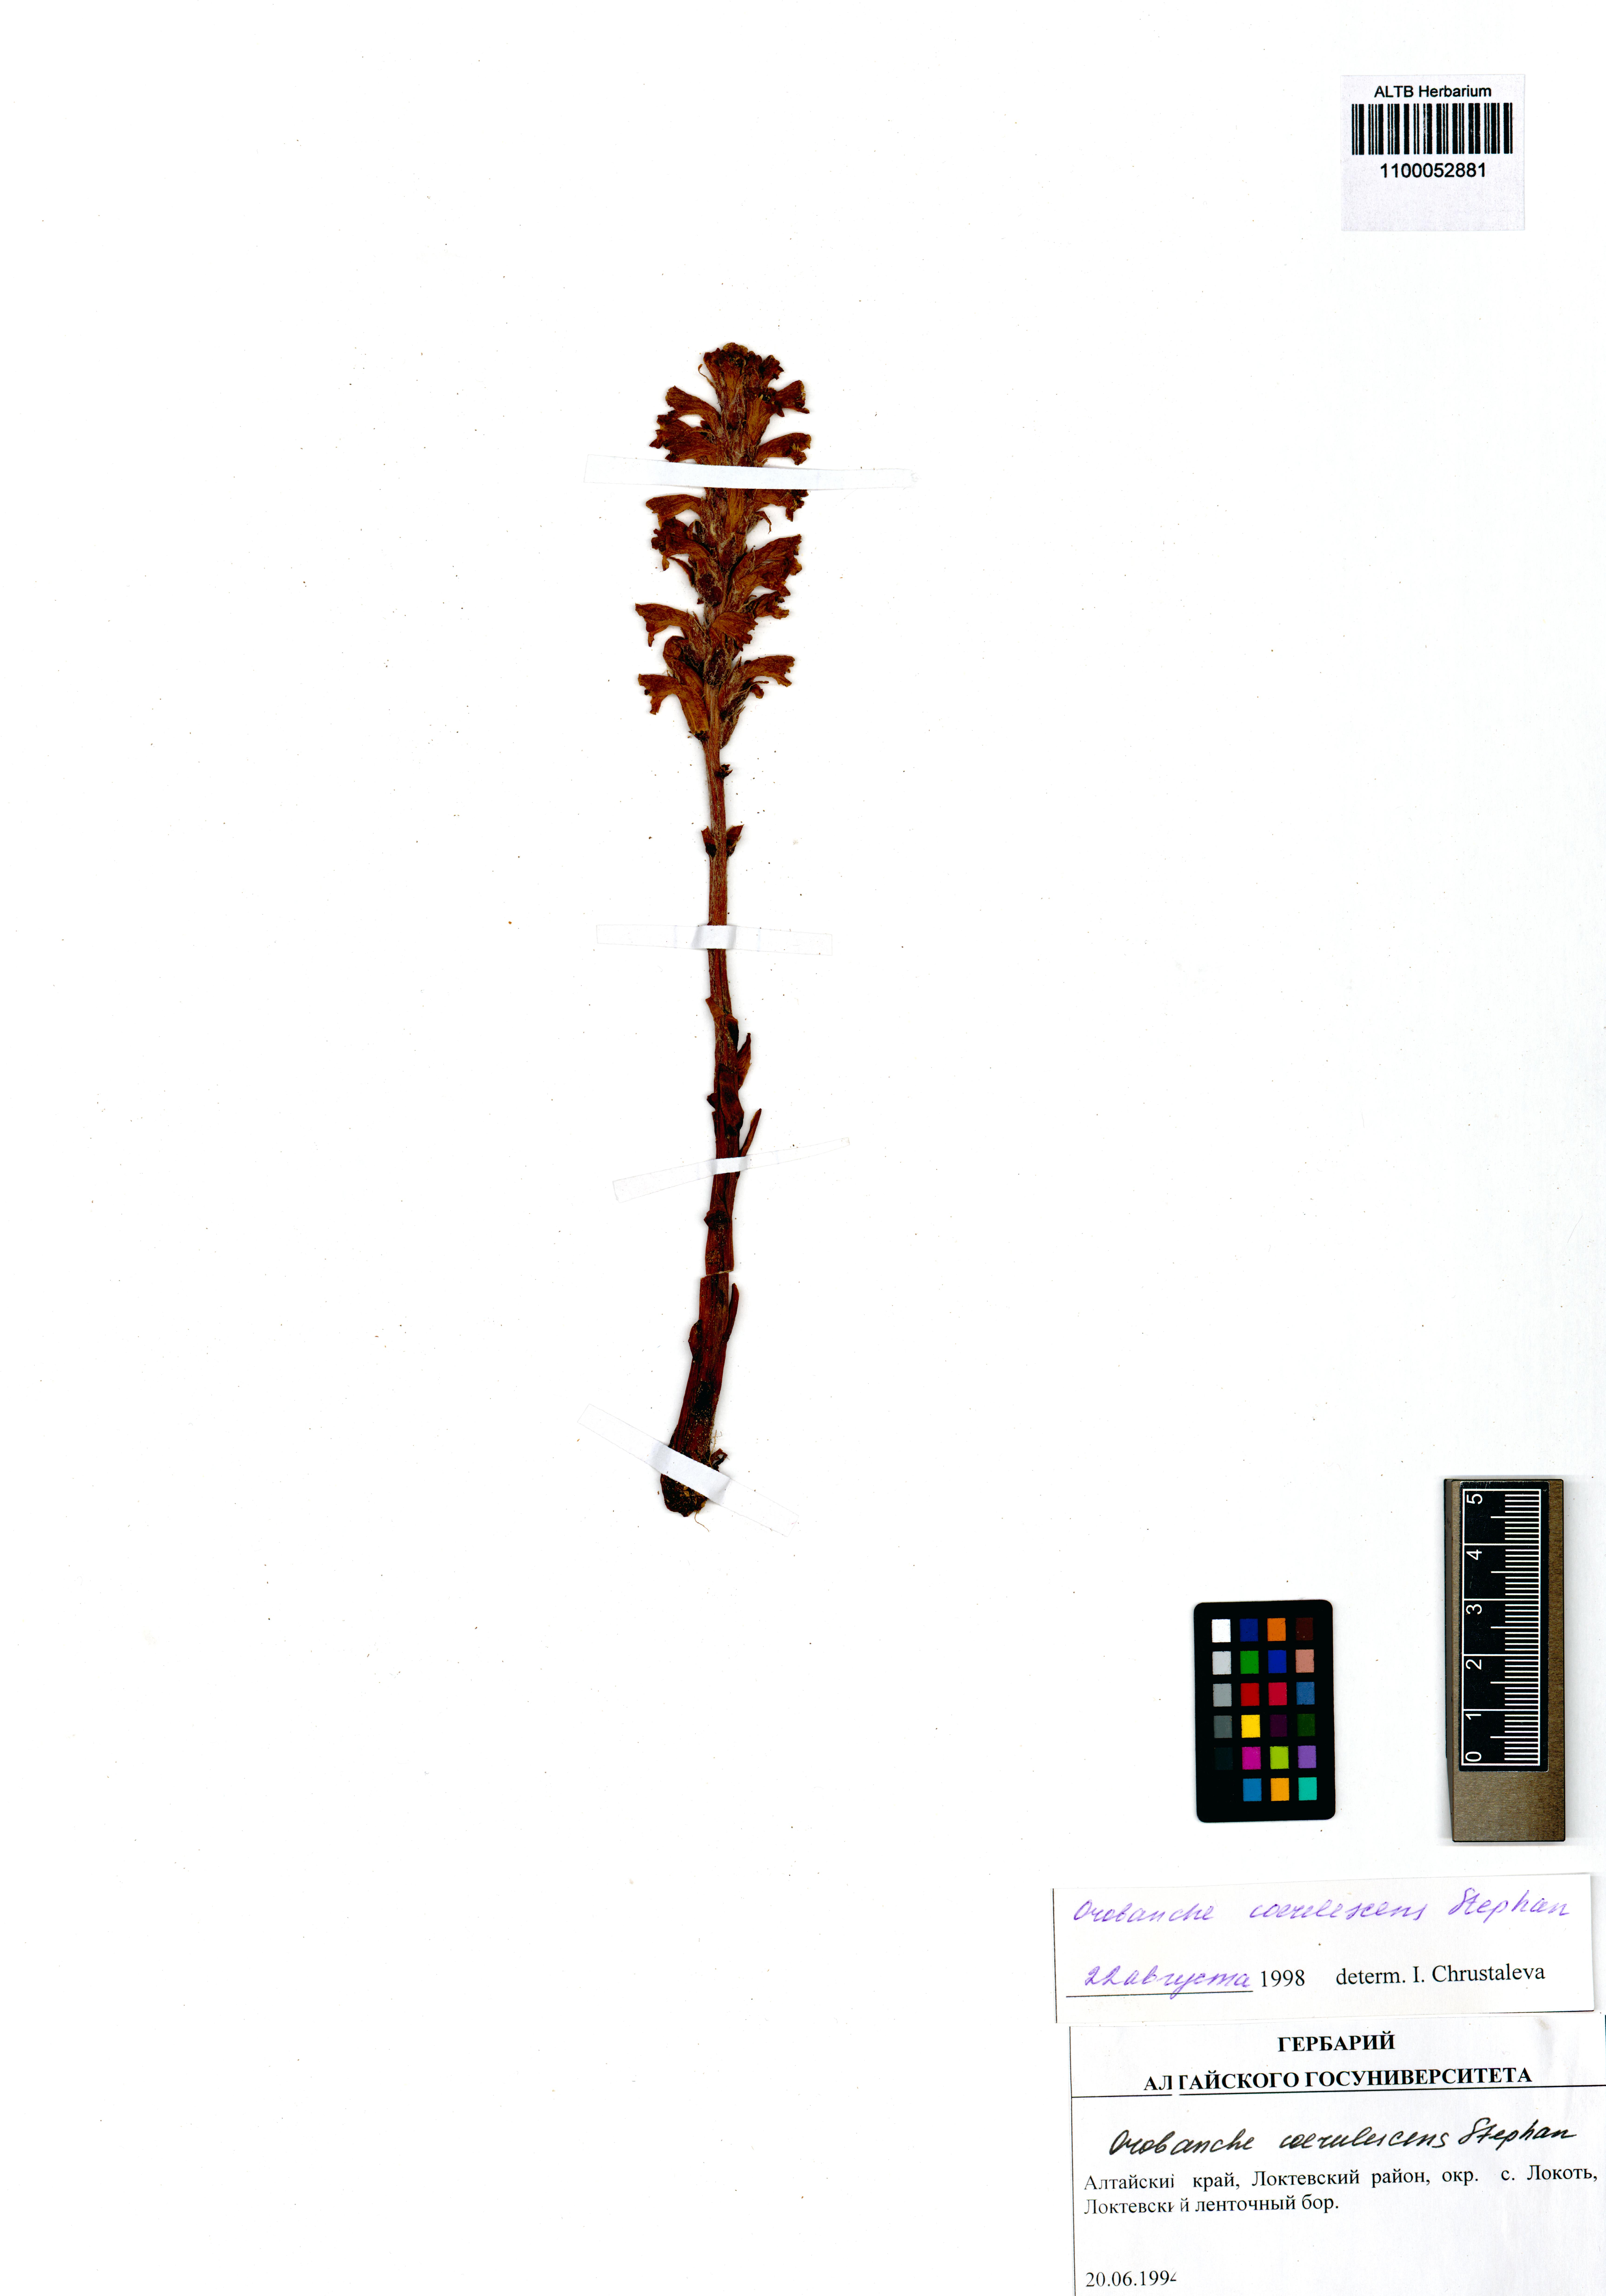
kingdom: Plantae
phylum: Tracheophyta
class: Magnoliopsida
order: Lamiales
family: Orobanchaceae
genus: Orobanche
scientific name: Orobanche coerulescens
